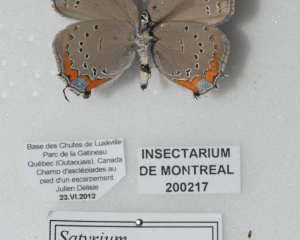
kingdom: Animalia
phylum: Arthropoda
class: Insecta
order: Lepidoptera
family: Lycaenidae
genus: Strymon
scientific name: Strymon acadica
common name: Acadian Hairstreak
